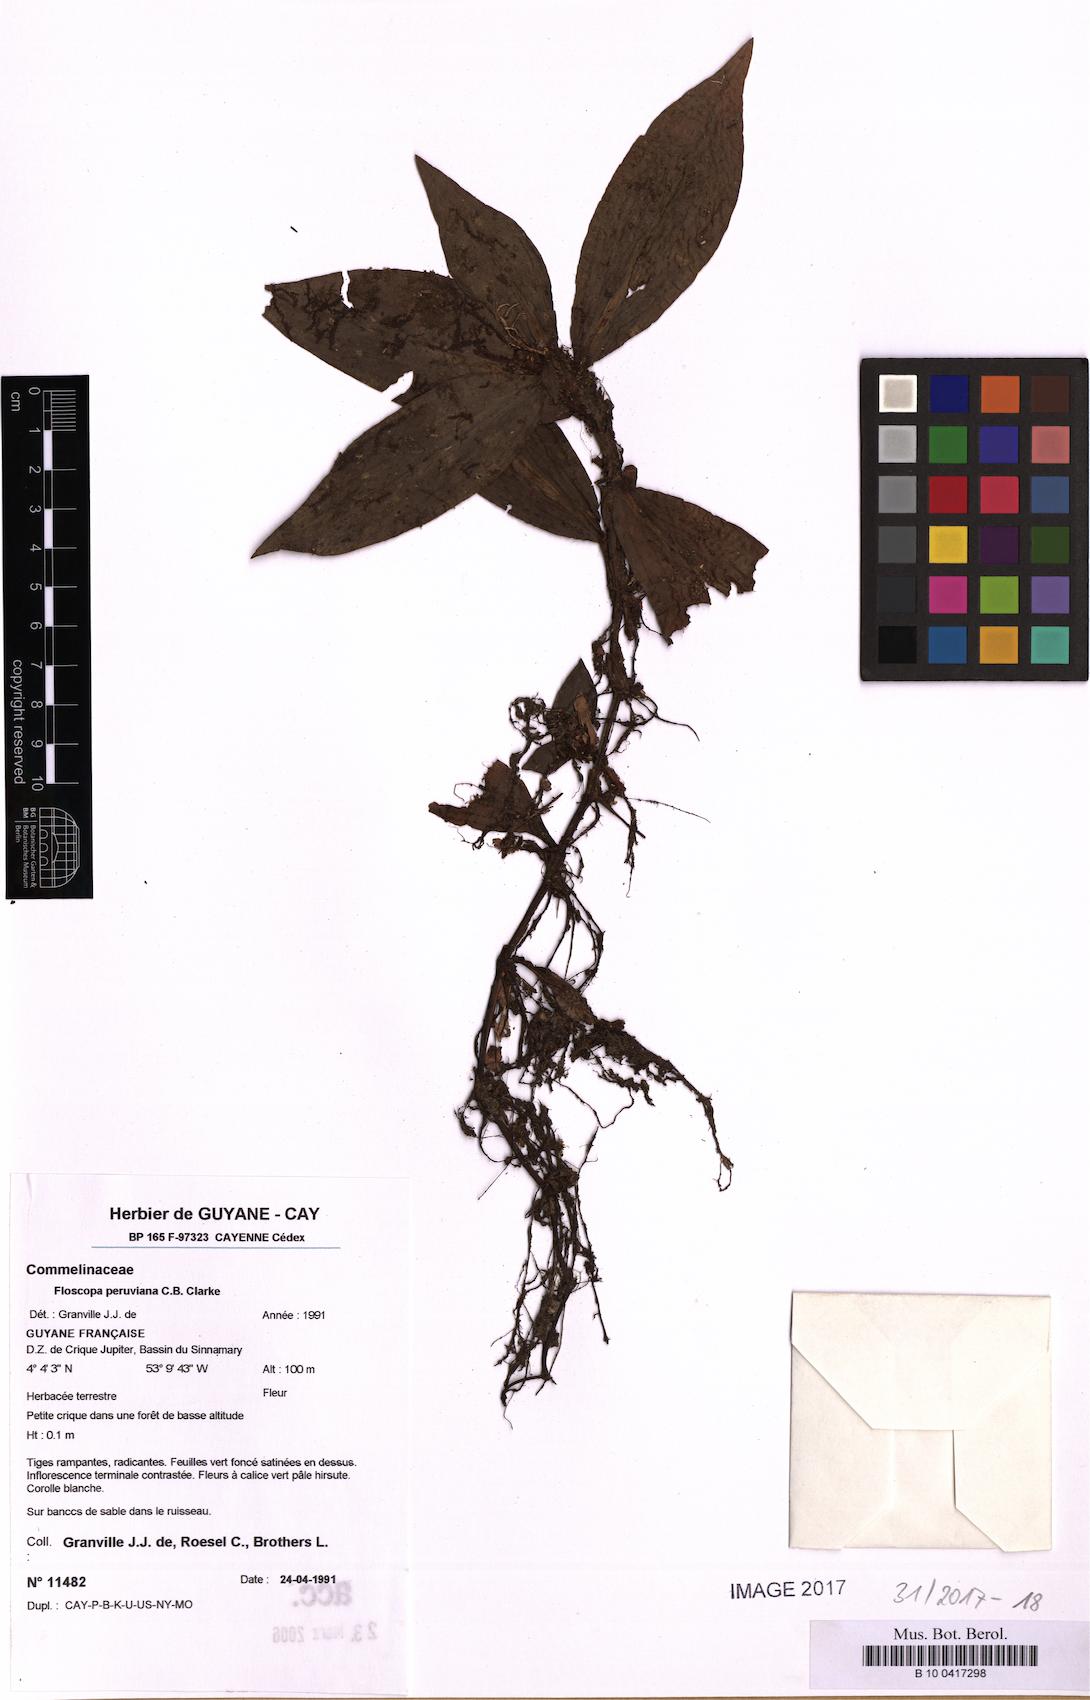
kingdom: Plantae
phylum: Tracheophyta
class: Liliopsida
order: Commelinales
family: Commelinaceae
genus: Floscopa
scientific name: Floscopa peruviana
